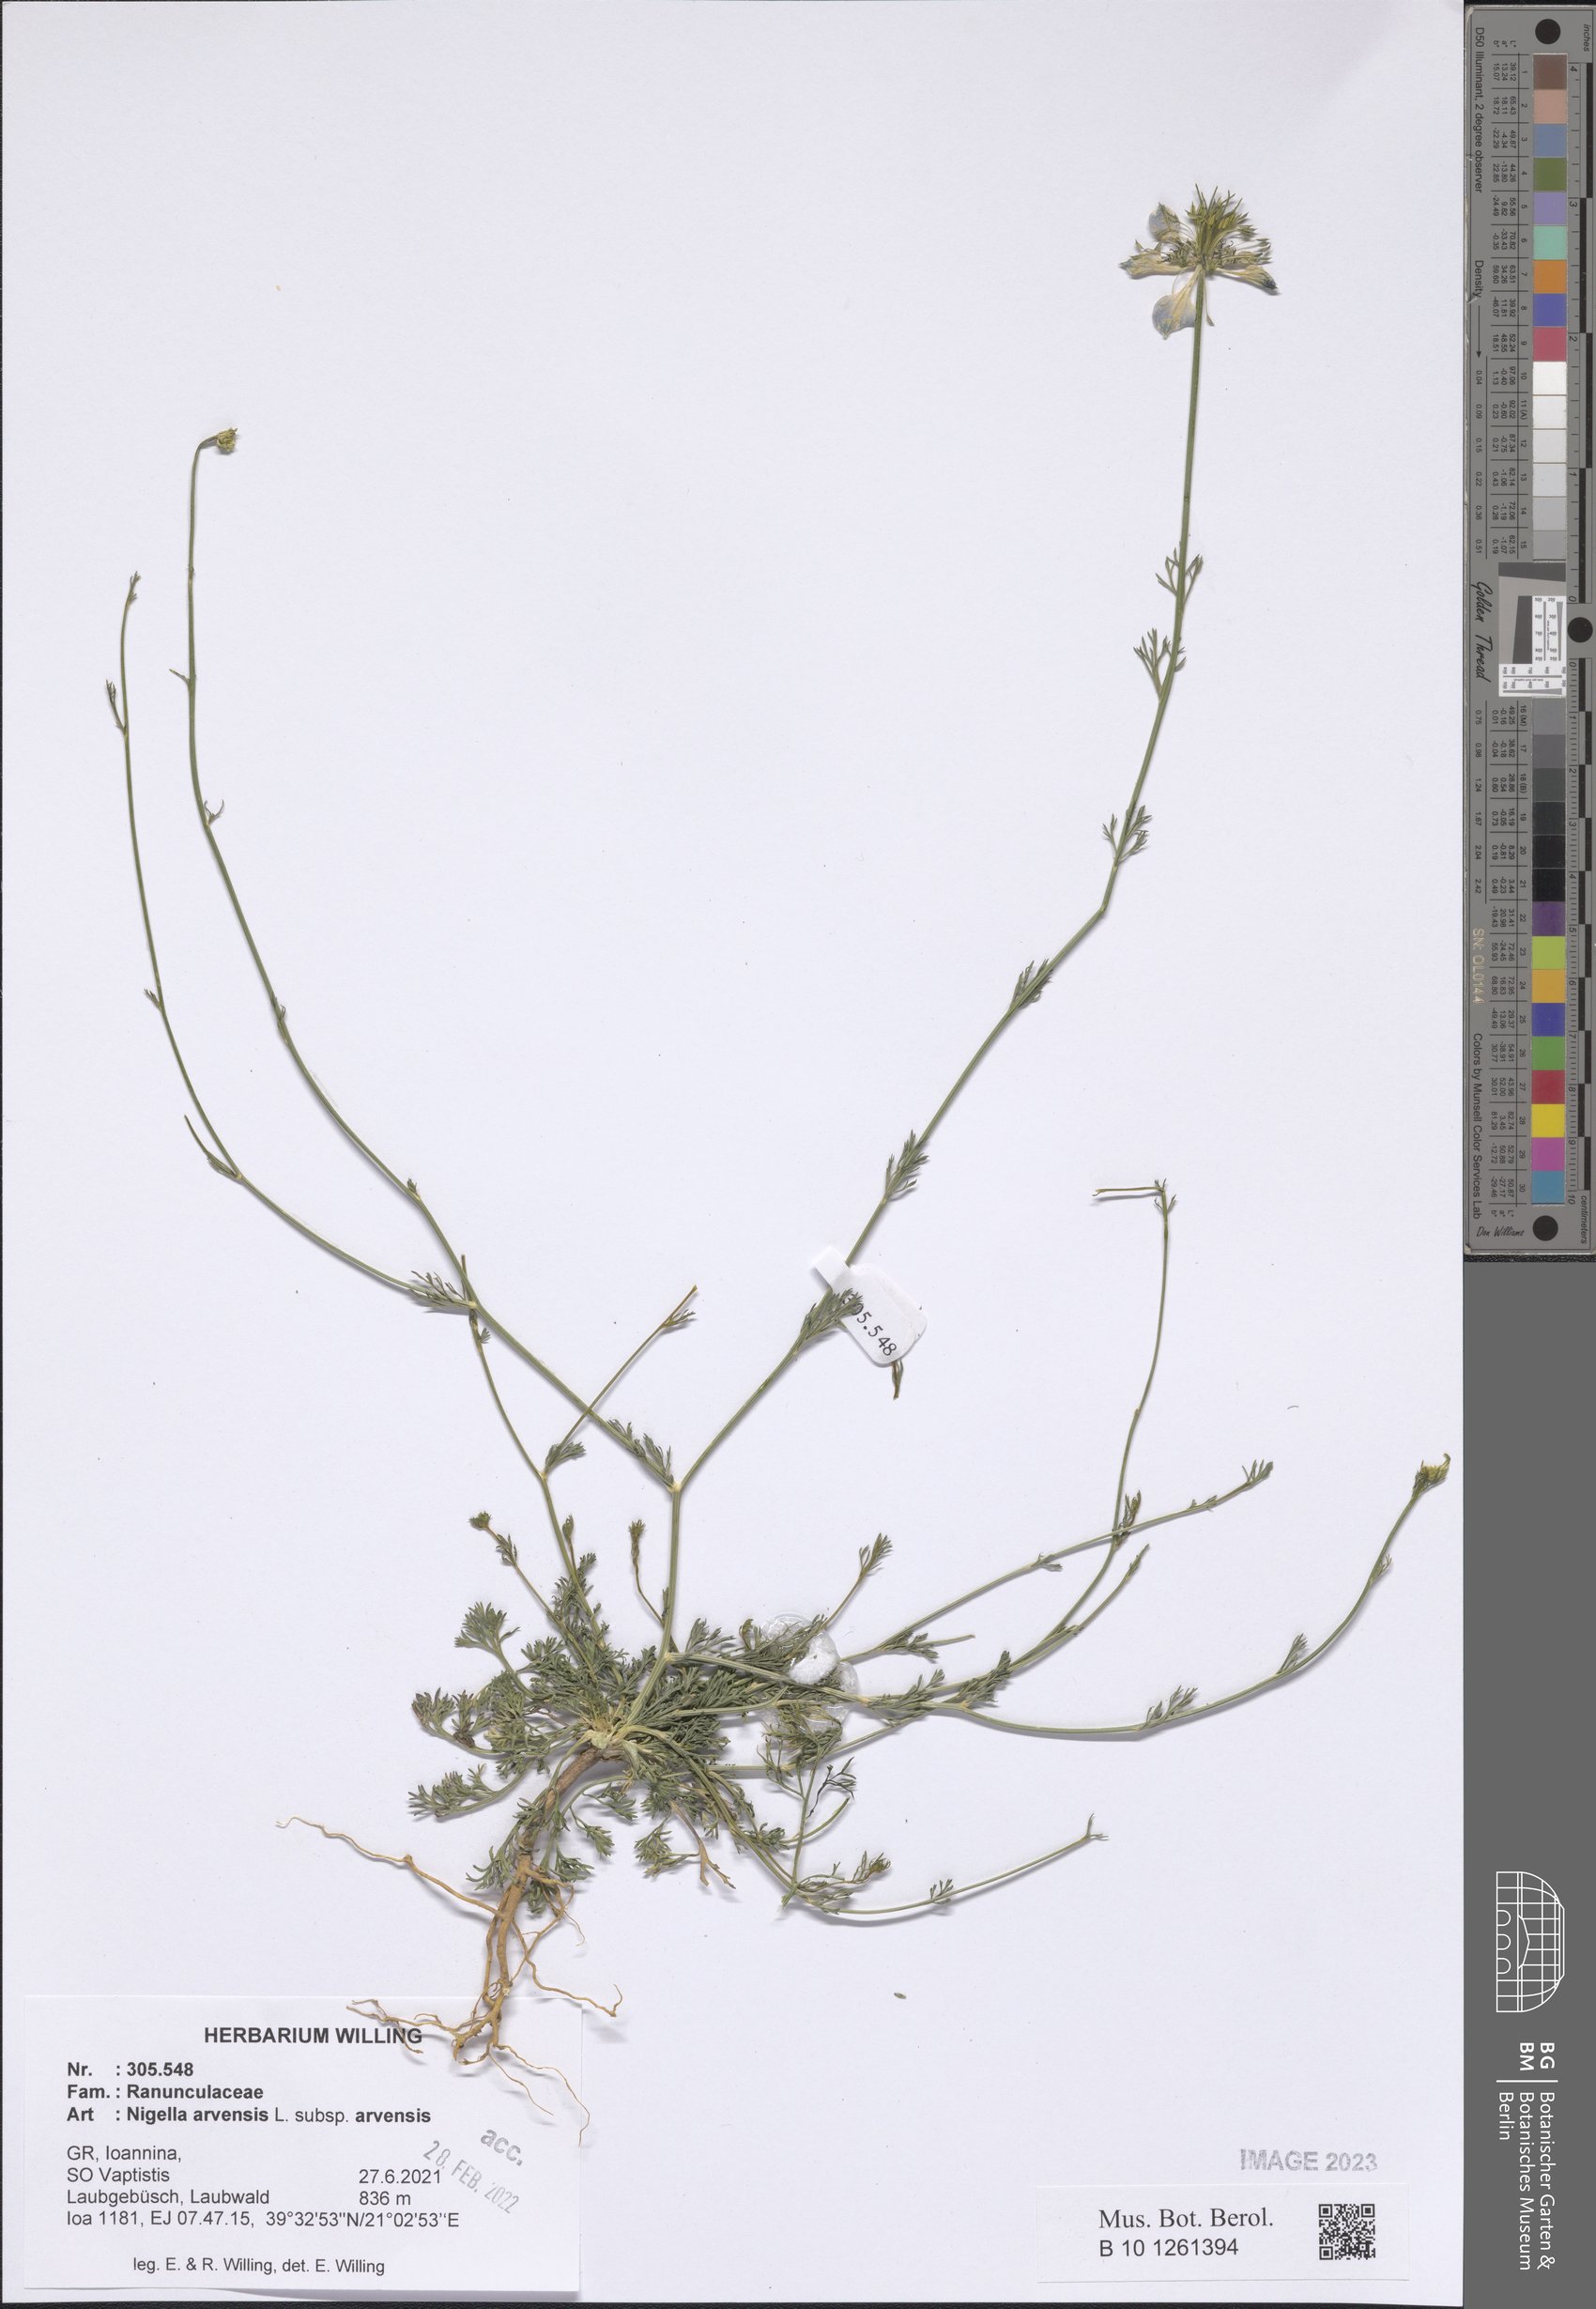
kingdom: Plantae
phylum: Tracheophyta
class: Magnoliopsida
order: Ranunculales
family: Ranunculaceae
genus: Nigella
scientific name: Nigella arvensis
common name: Wild fennel-flower
